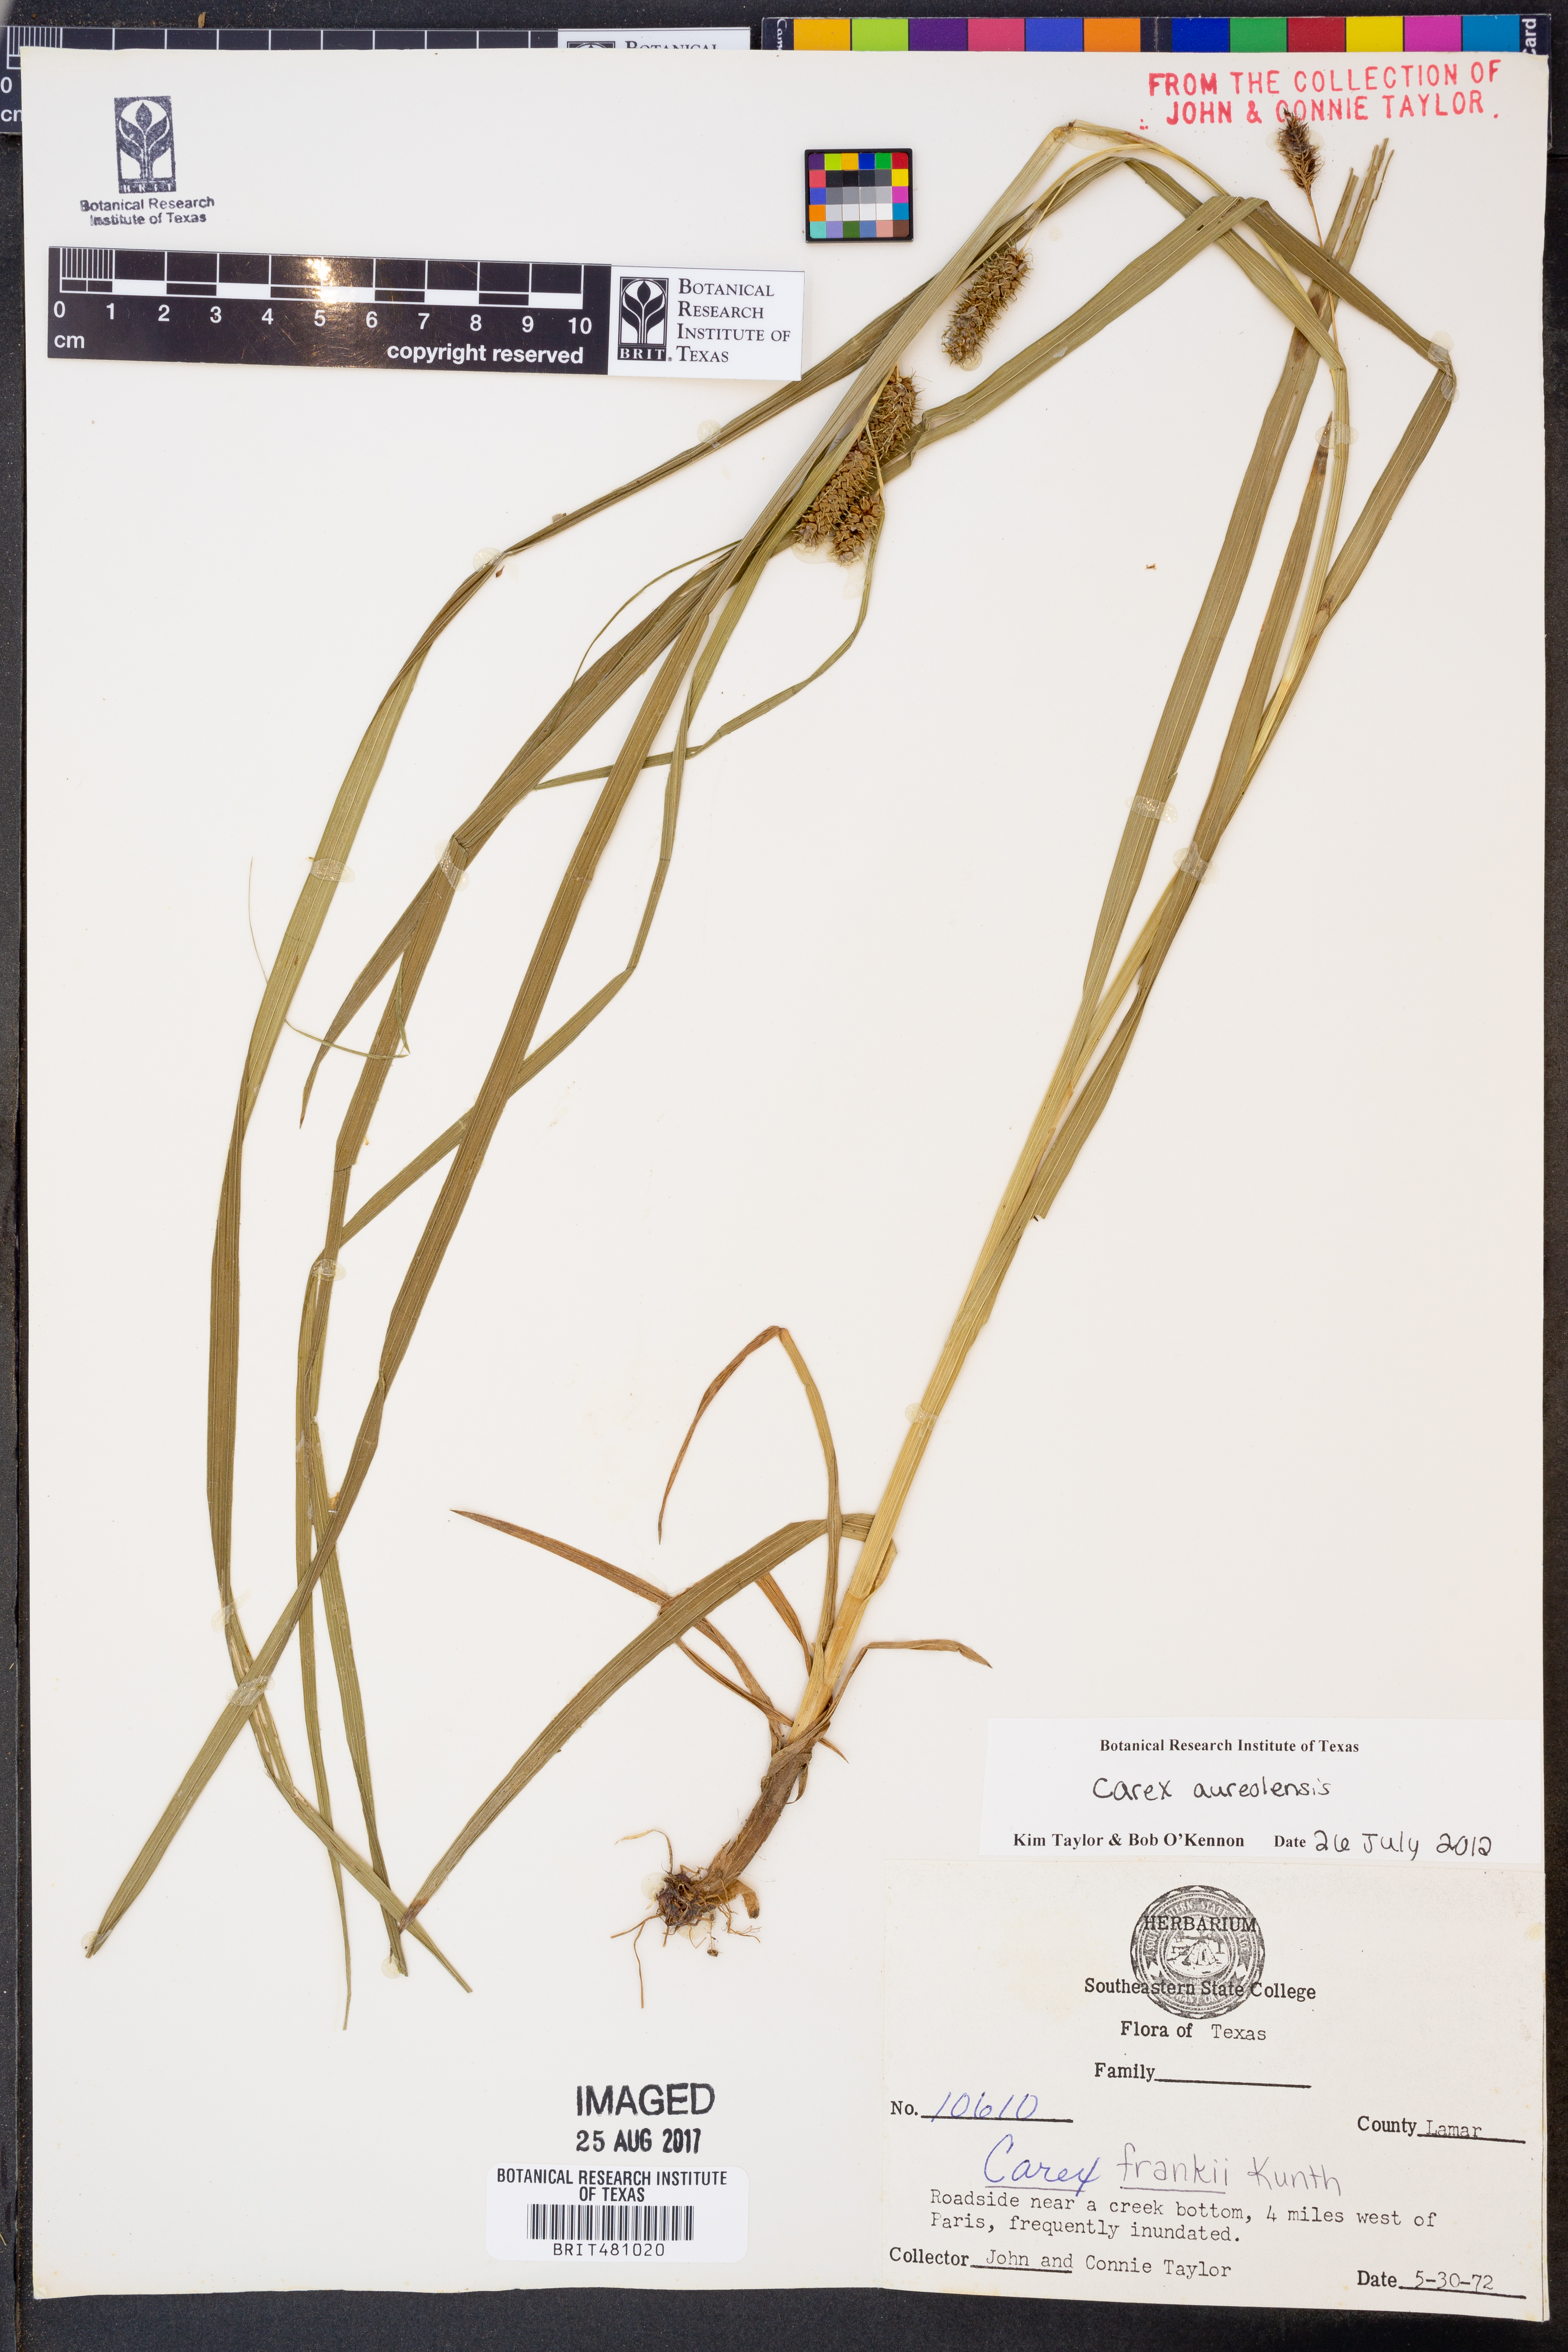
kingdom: Plantae
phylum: Tracheophyta
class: Liliopsida
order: Poales
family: Cyperaceae
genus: Carex
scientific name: Carex aureolensis
